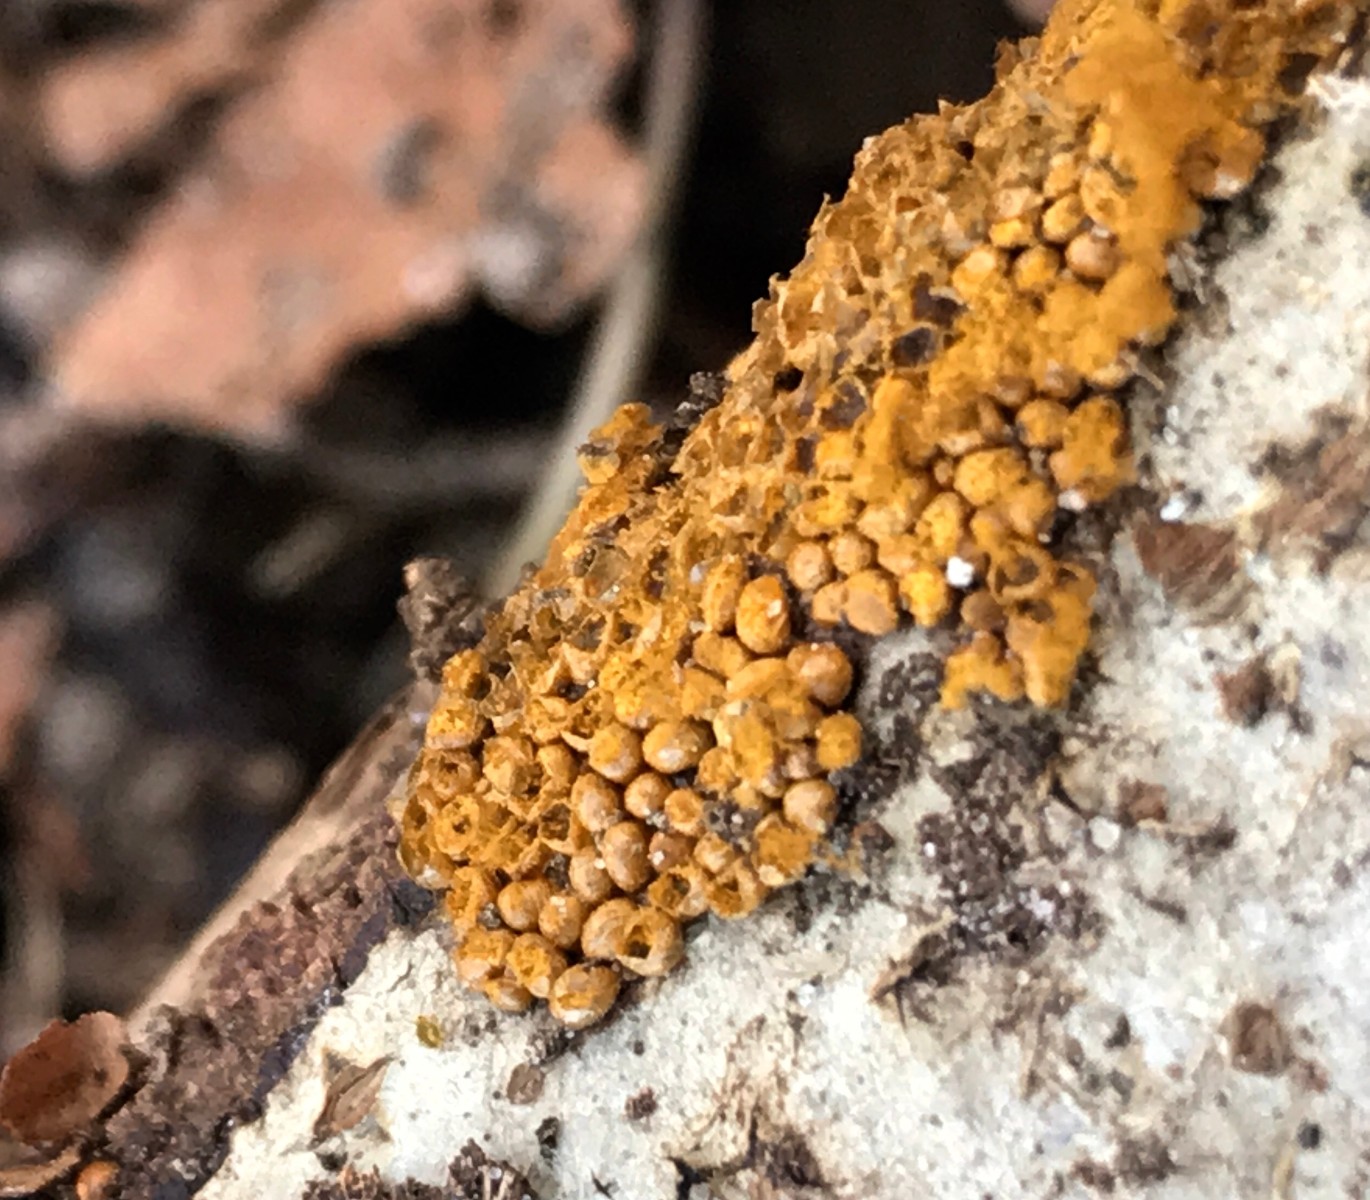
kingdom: Protozoa
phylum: Mycetozoa
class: Myxomycetes
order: Trichiales
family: Trichiaceae
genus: Trichia
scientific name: Trichia
